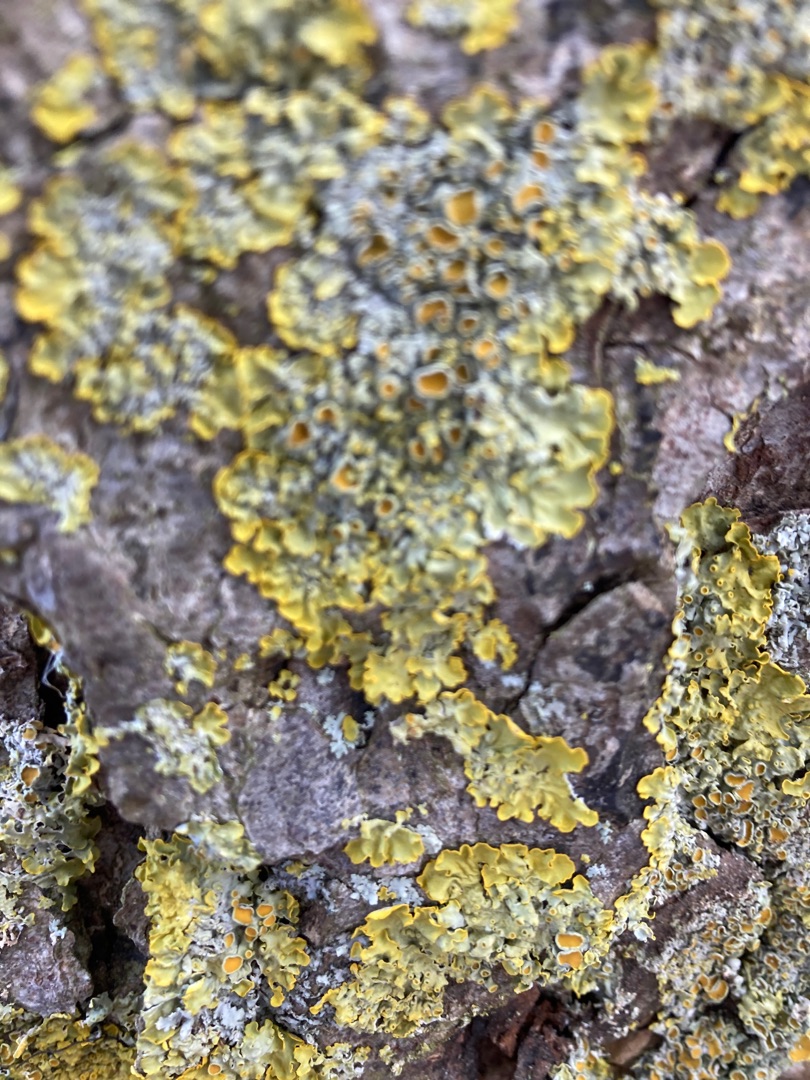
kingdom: Fungi
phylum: Ascomycota
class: Lecanoromycetes
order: Teloschistales
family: Teloschistaceae
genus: Xanthoria
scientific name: Xanthoria parietina
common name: Almindelig væggelav
